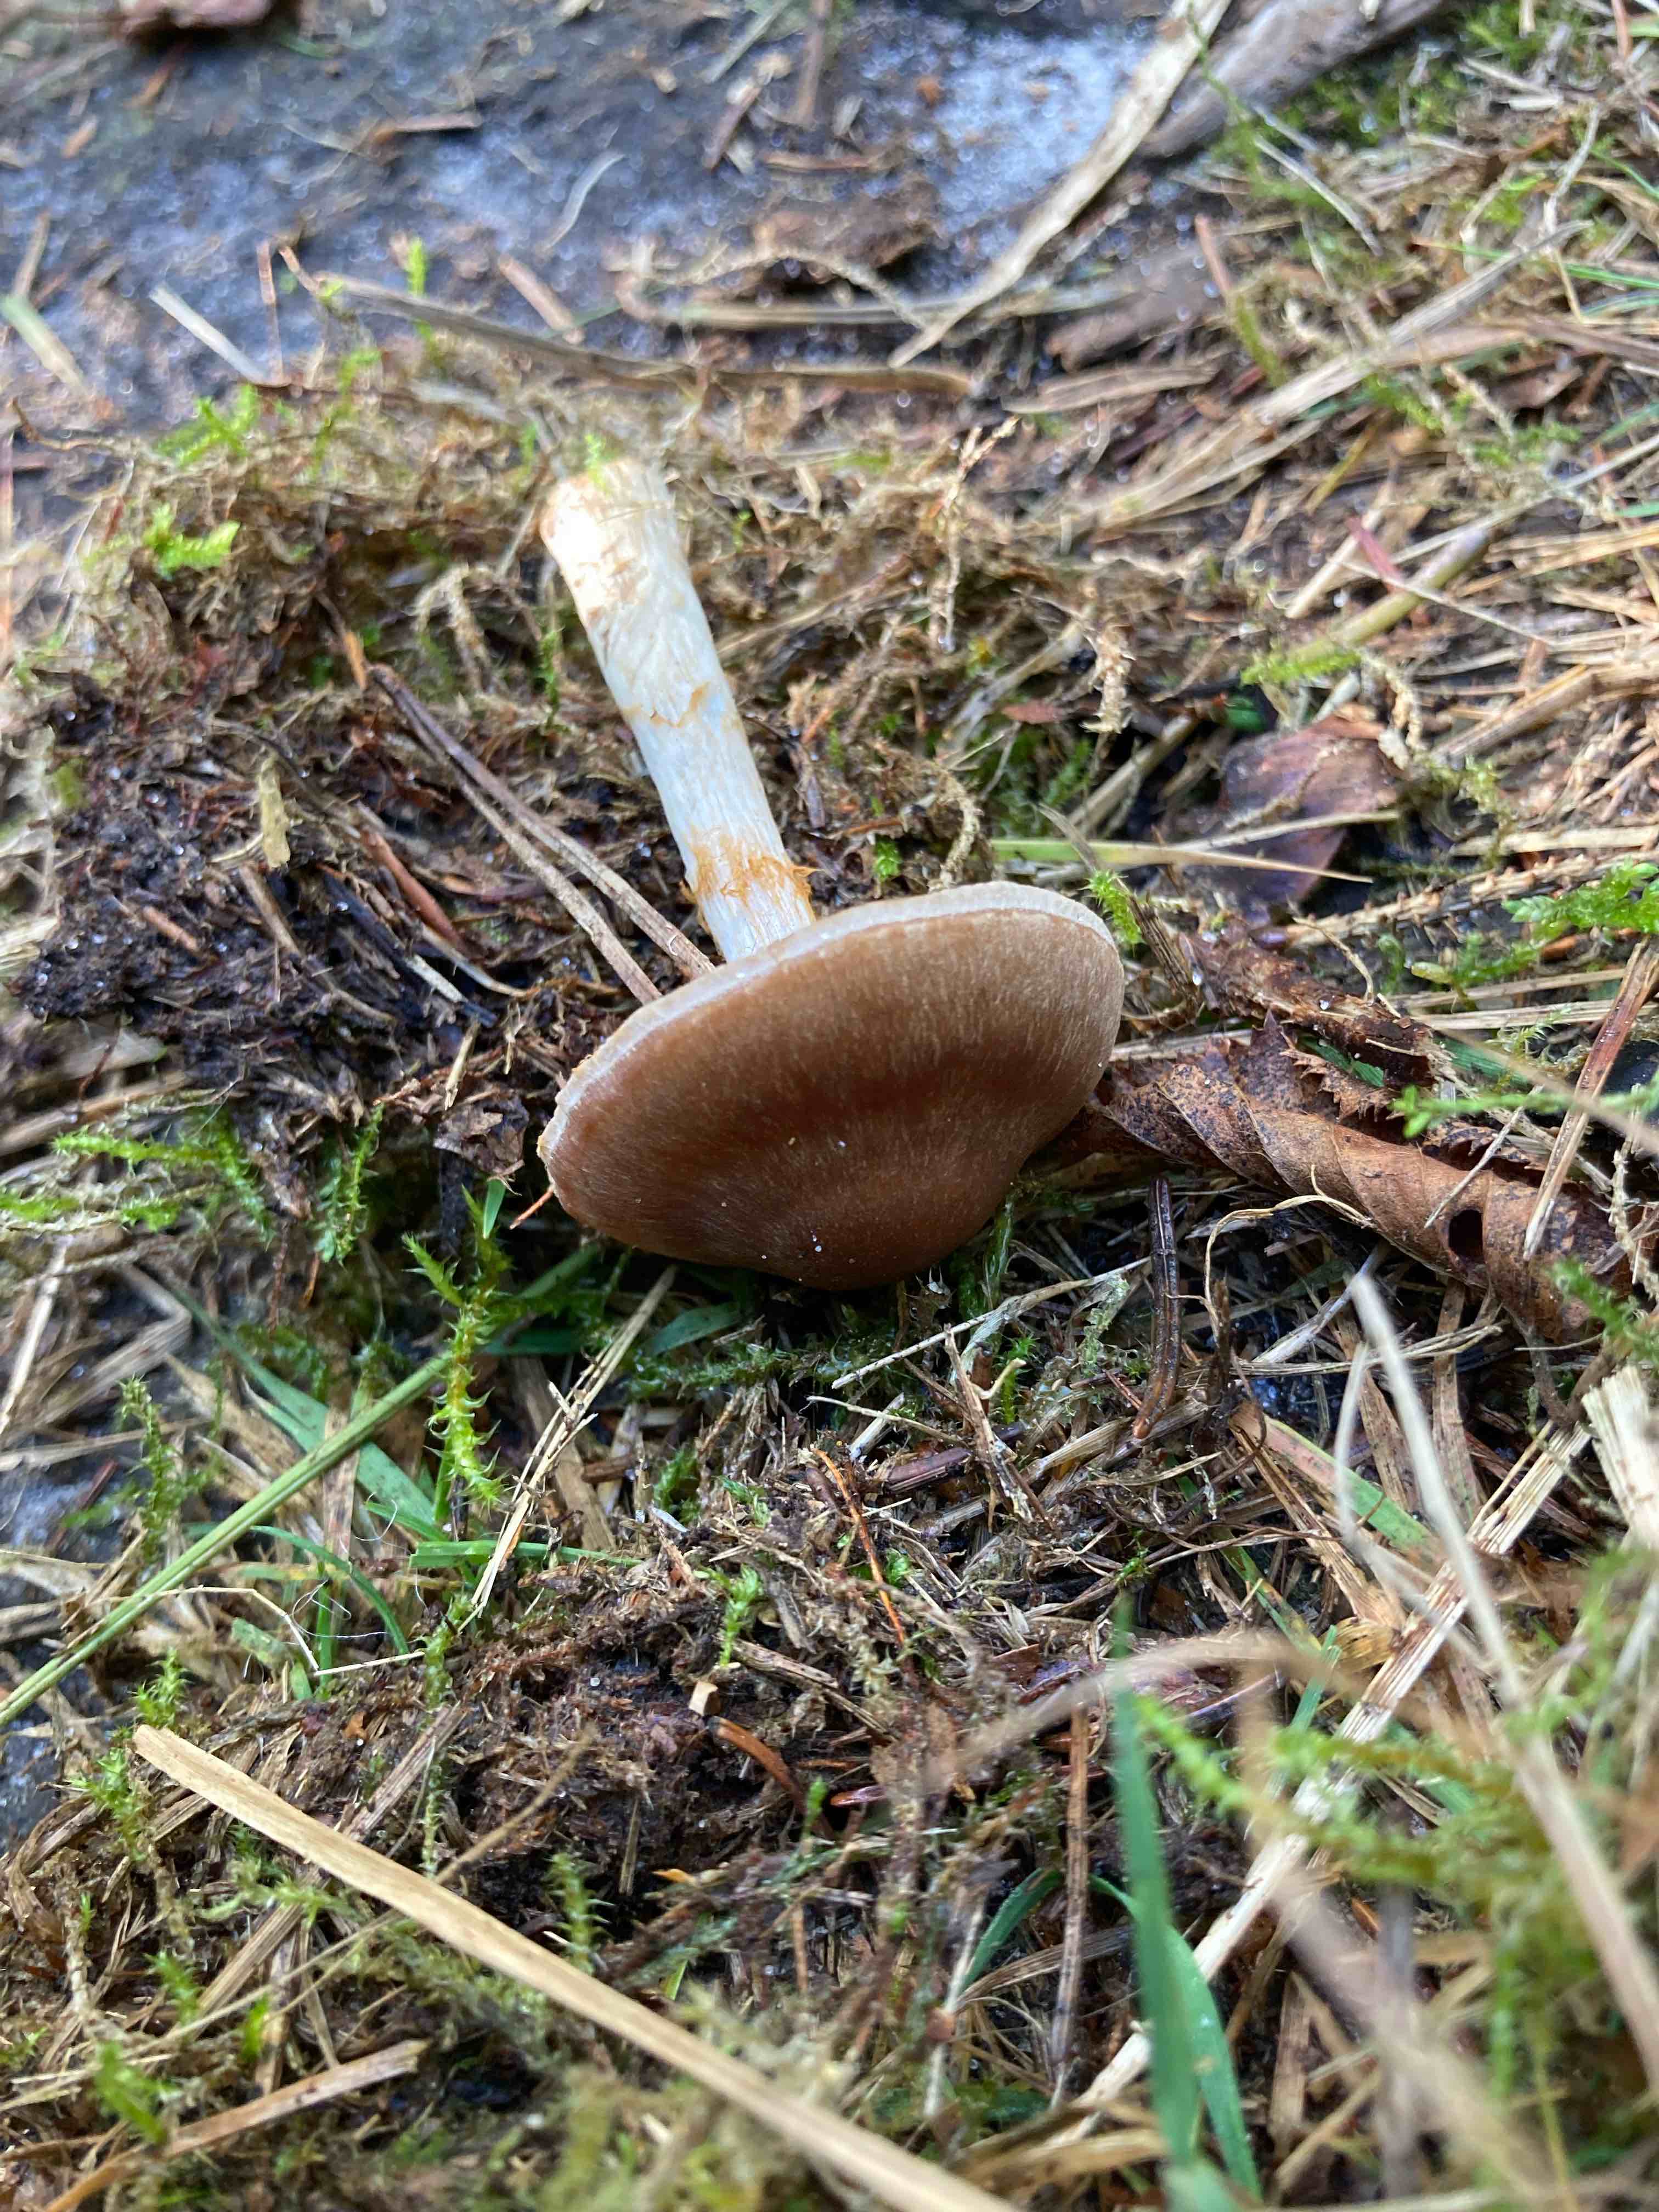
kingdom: Fungi
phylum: Basidiomycota
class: Agaricomycetes
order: Agaricales
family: Cortinariaceae
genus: Cortinarius
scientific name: Cortinarius
